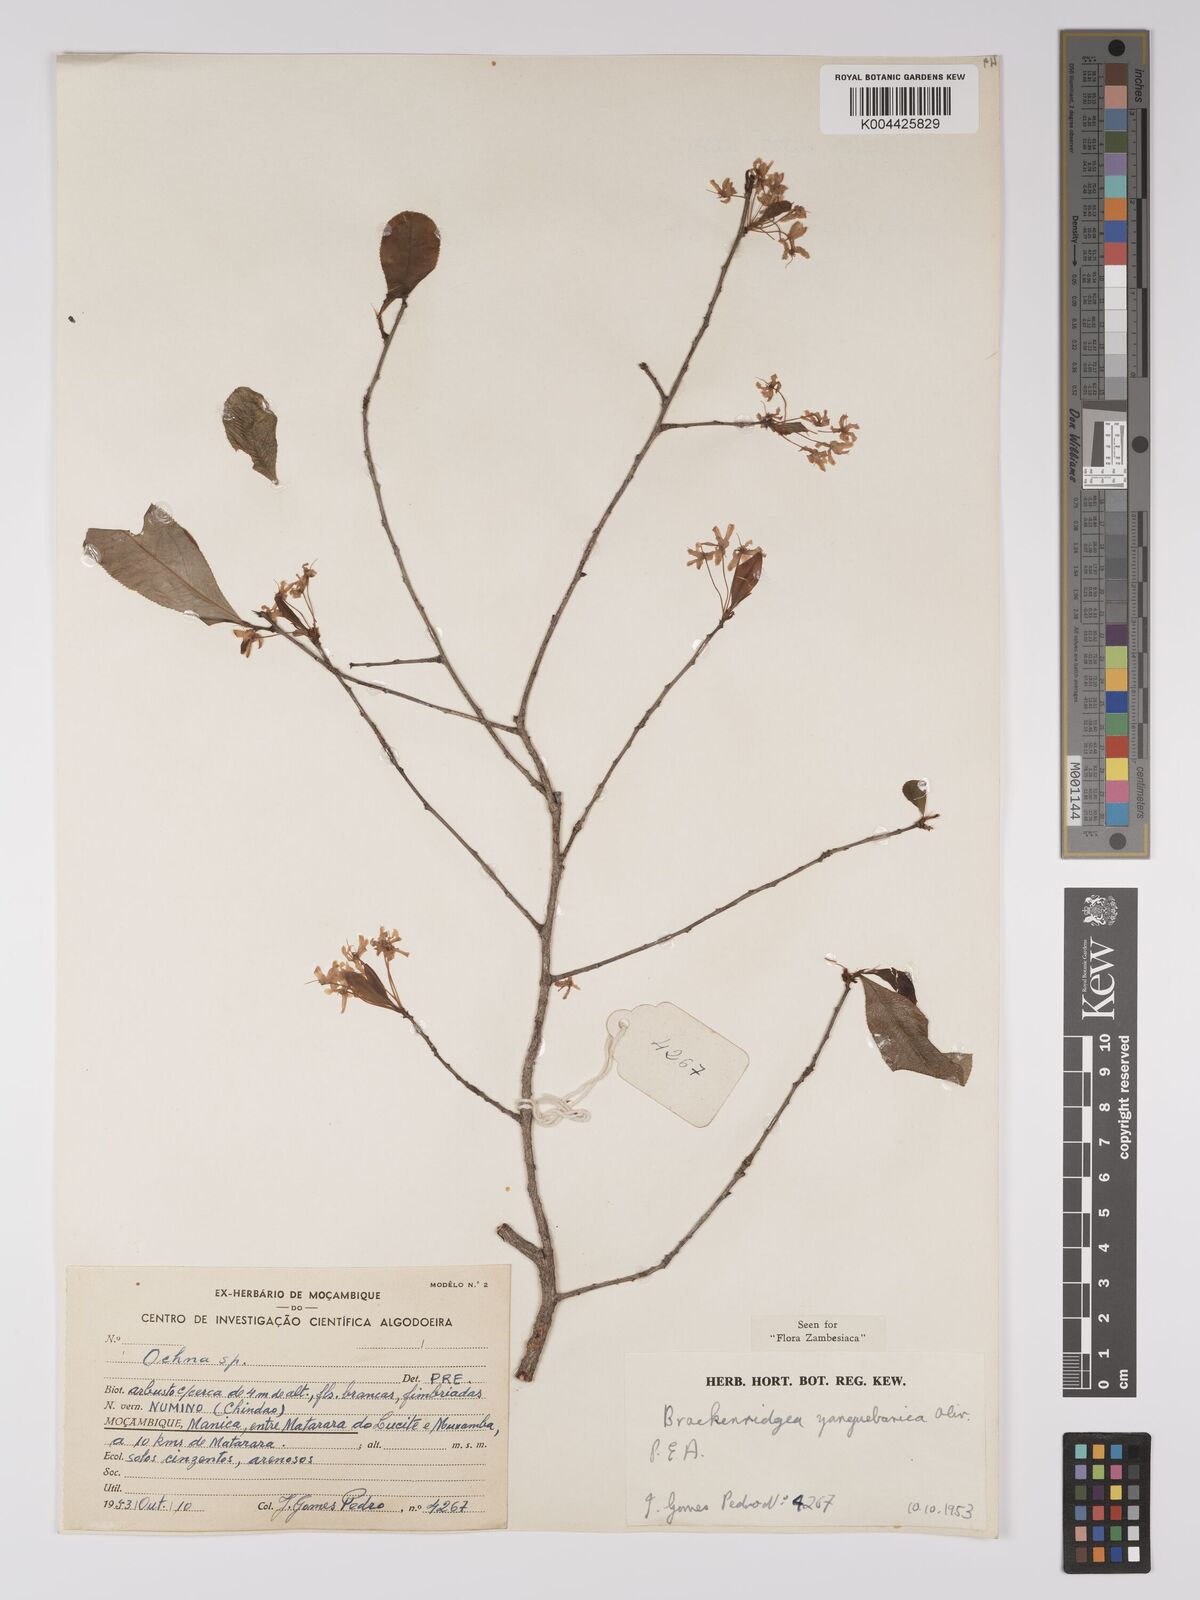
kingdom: Plantae
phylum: Tracheophyta
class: Magnoliopsida
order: Malpighiales
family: Ochnaceae
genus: Brackenridgea
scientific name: Brackenridgea zanguebarica
